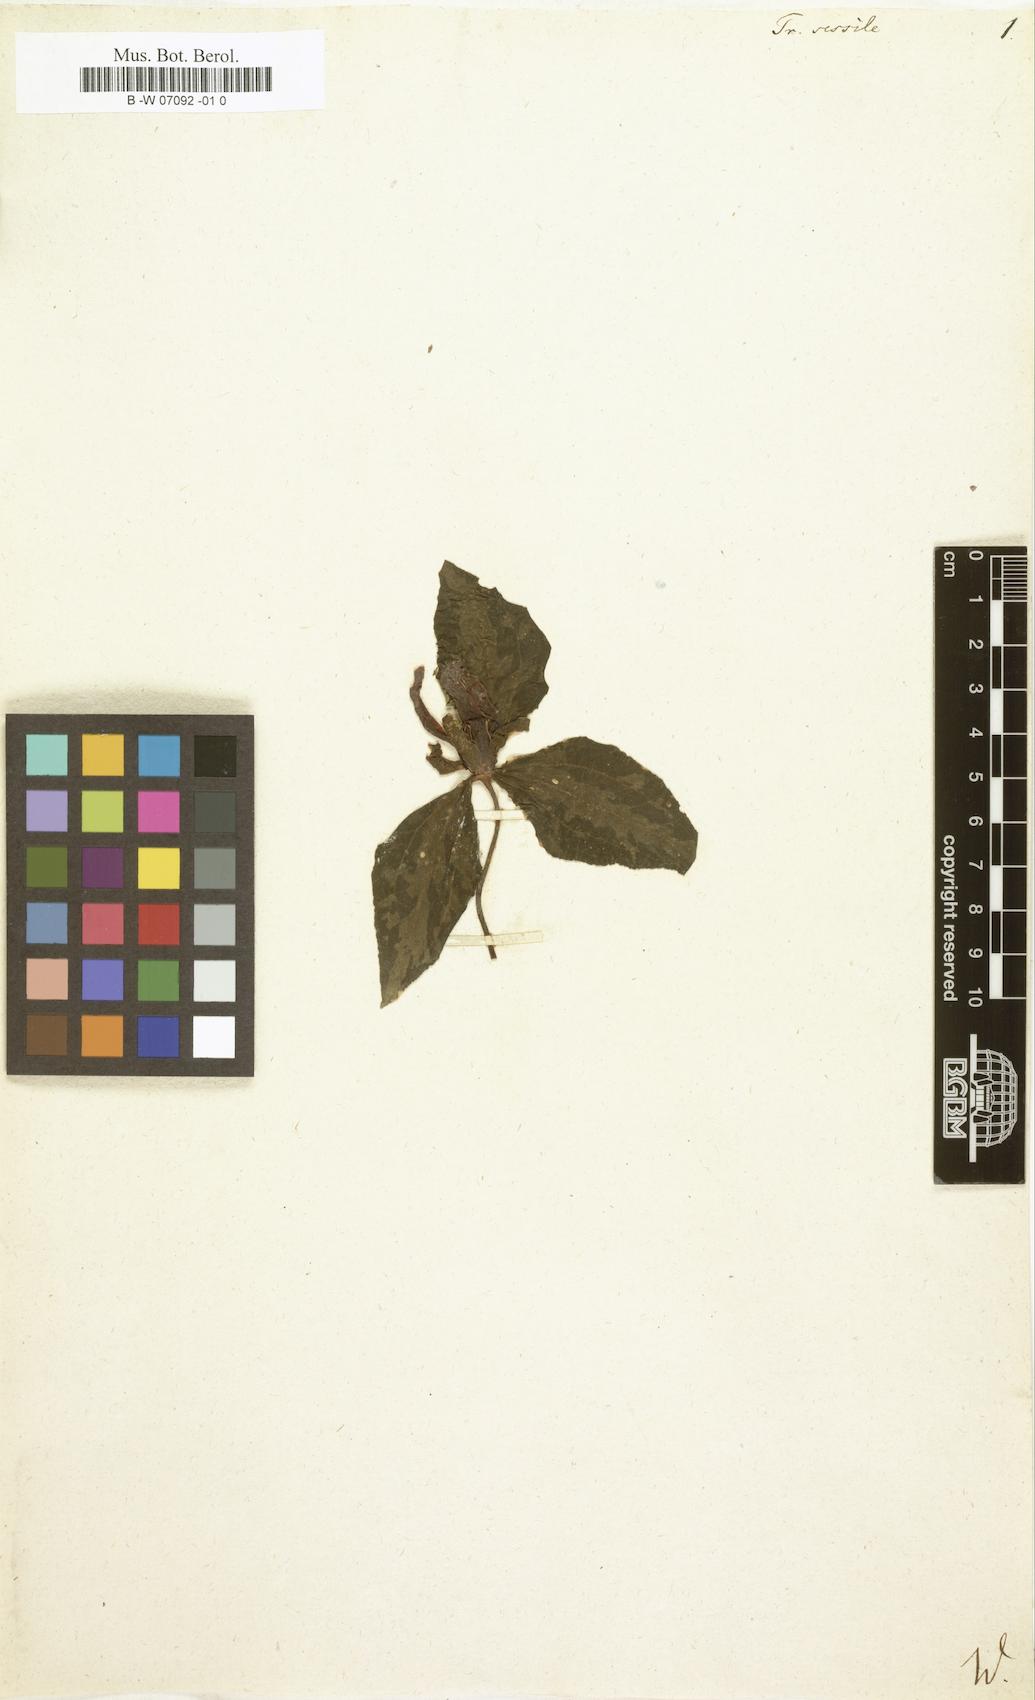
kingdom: Plantae
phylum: Tracheophyta
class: Liliopsida
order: Liliales
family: Melanthiaceae
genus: Trillium
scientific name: Trillium sessile
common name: Sessile trillium
